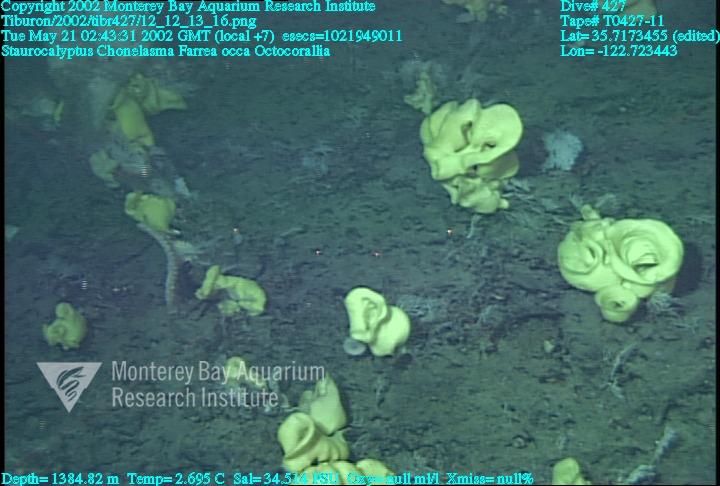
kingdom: Animalia
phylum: Porifera
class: Hexactinellida
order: Sceptrulophora
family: Euretidae
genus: Chonelasma
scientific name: Chonelasma
